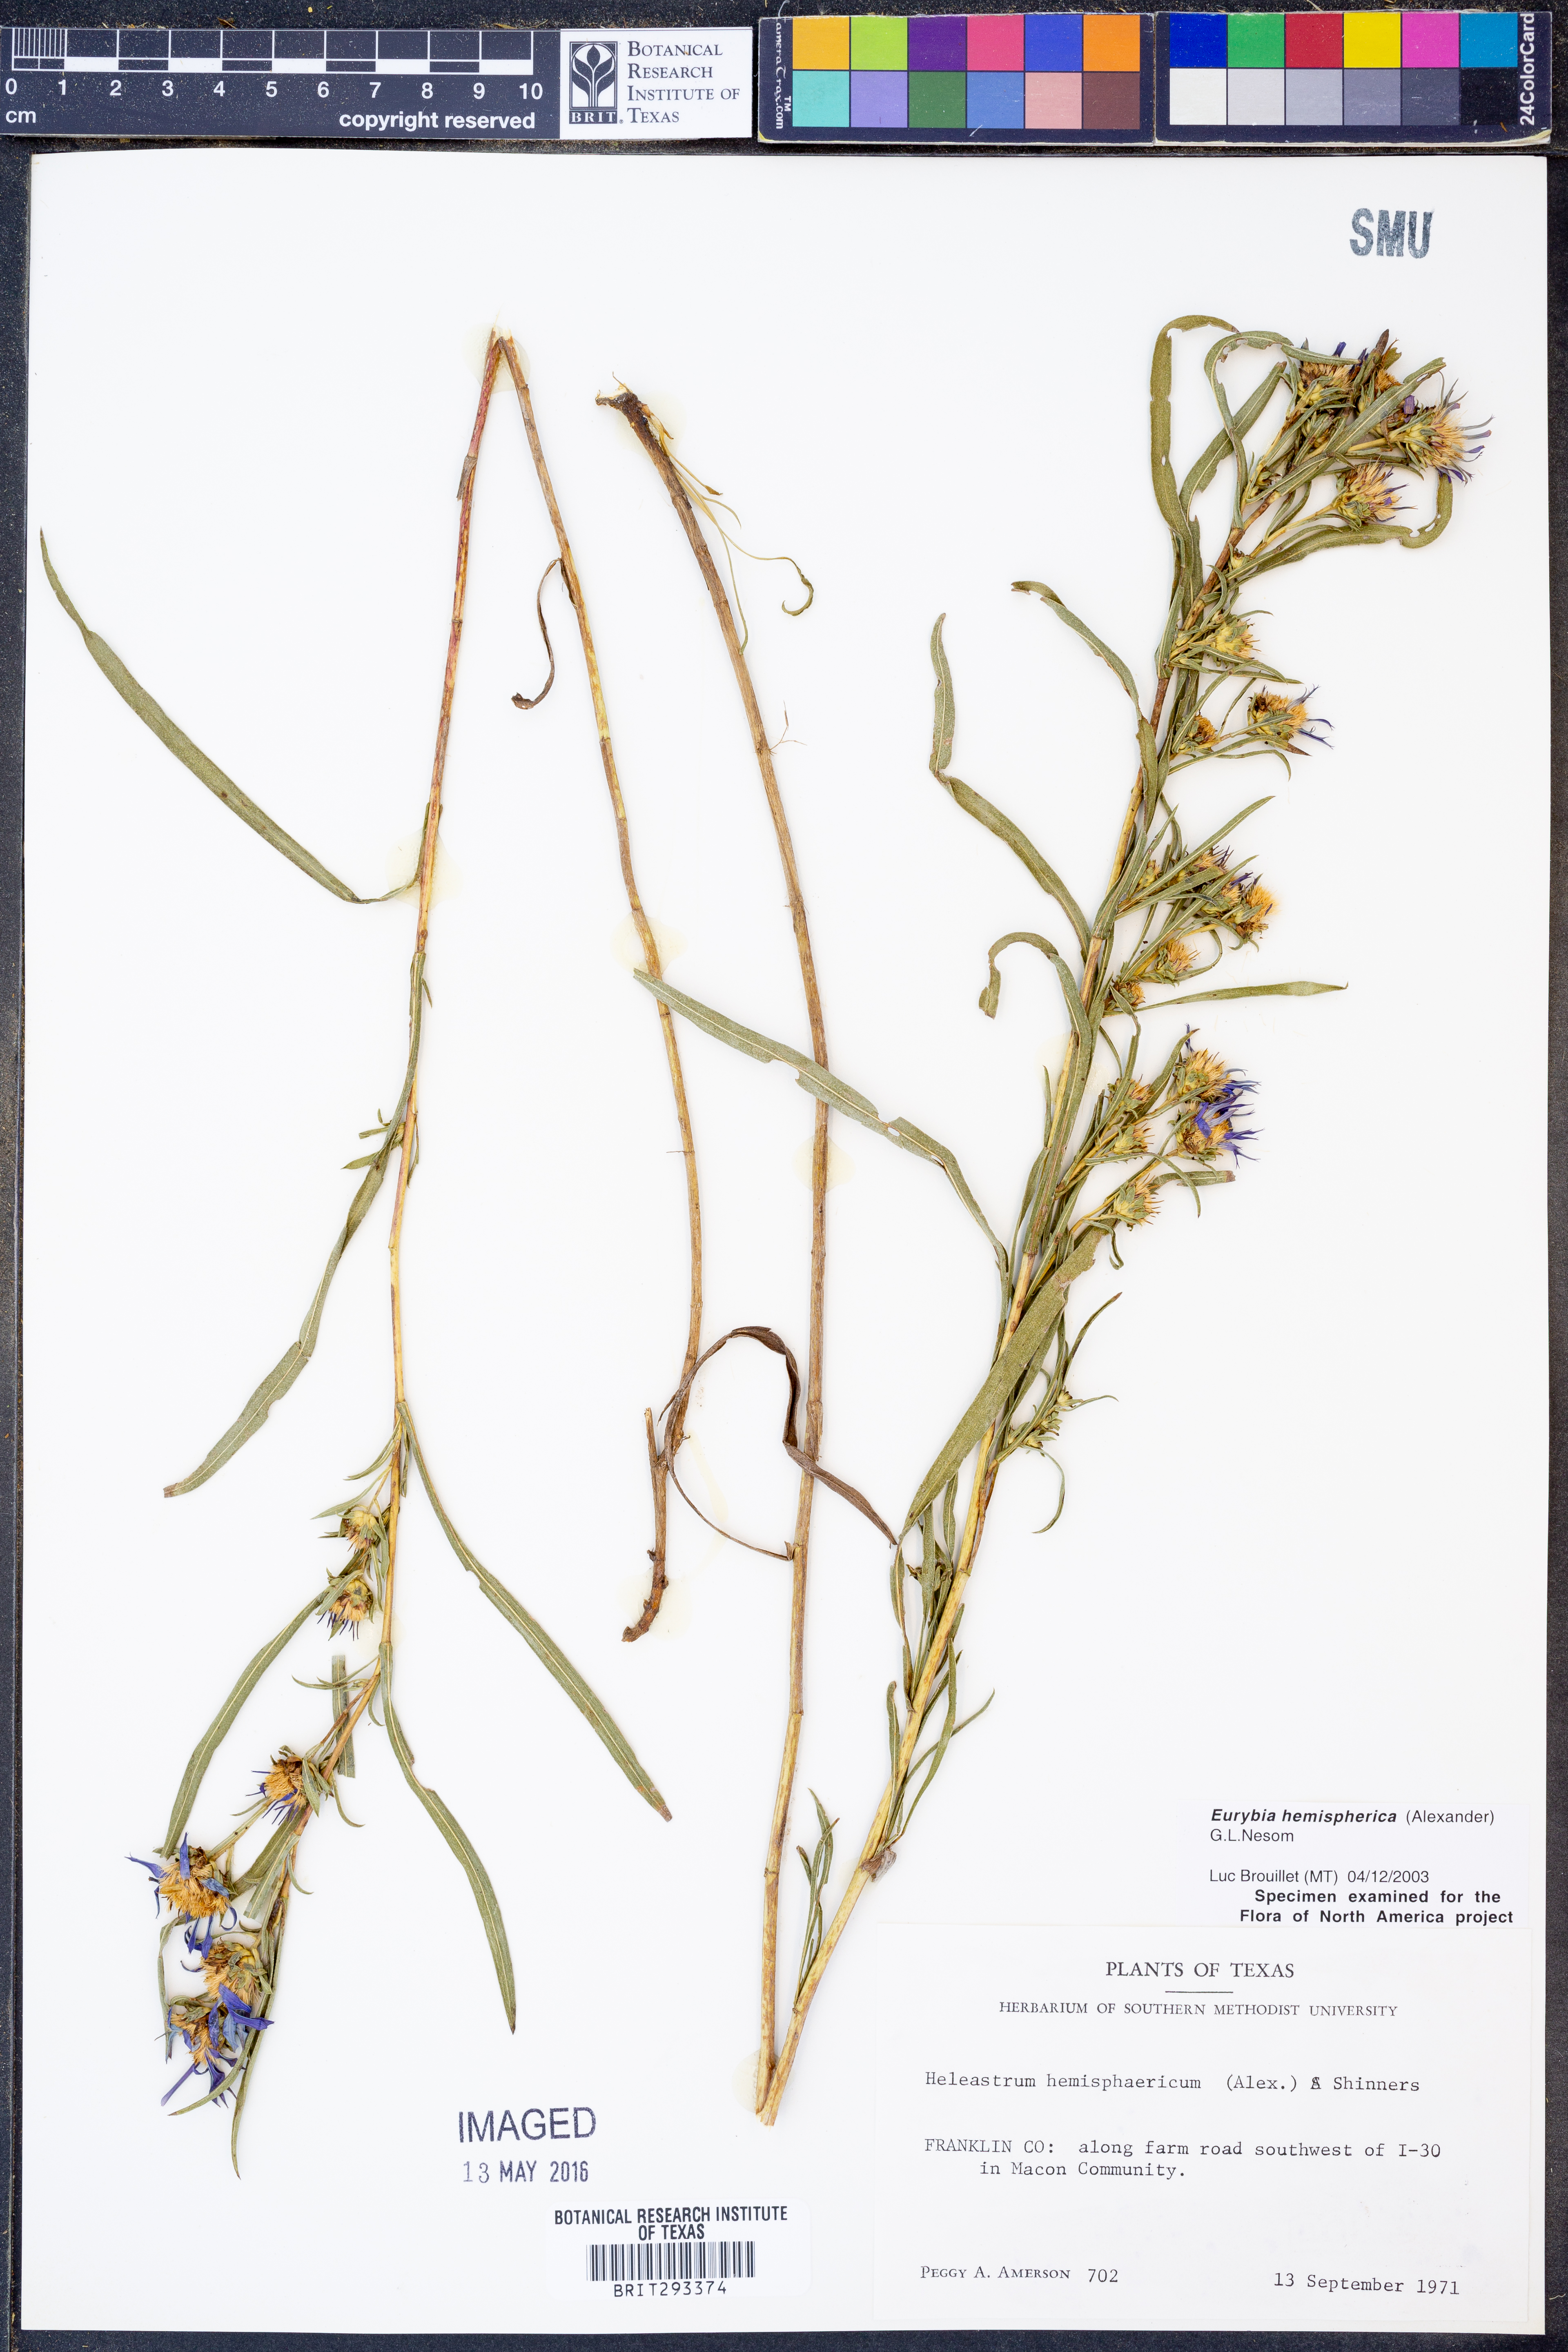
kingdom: Plantae
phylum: Tracheophyta
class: Magnoliopsida
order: Asterales
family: Asteraceae
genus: Eurybia
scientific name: Eurybia hemispherica
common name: Showy aster
